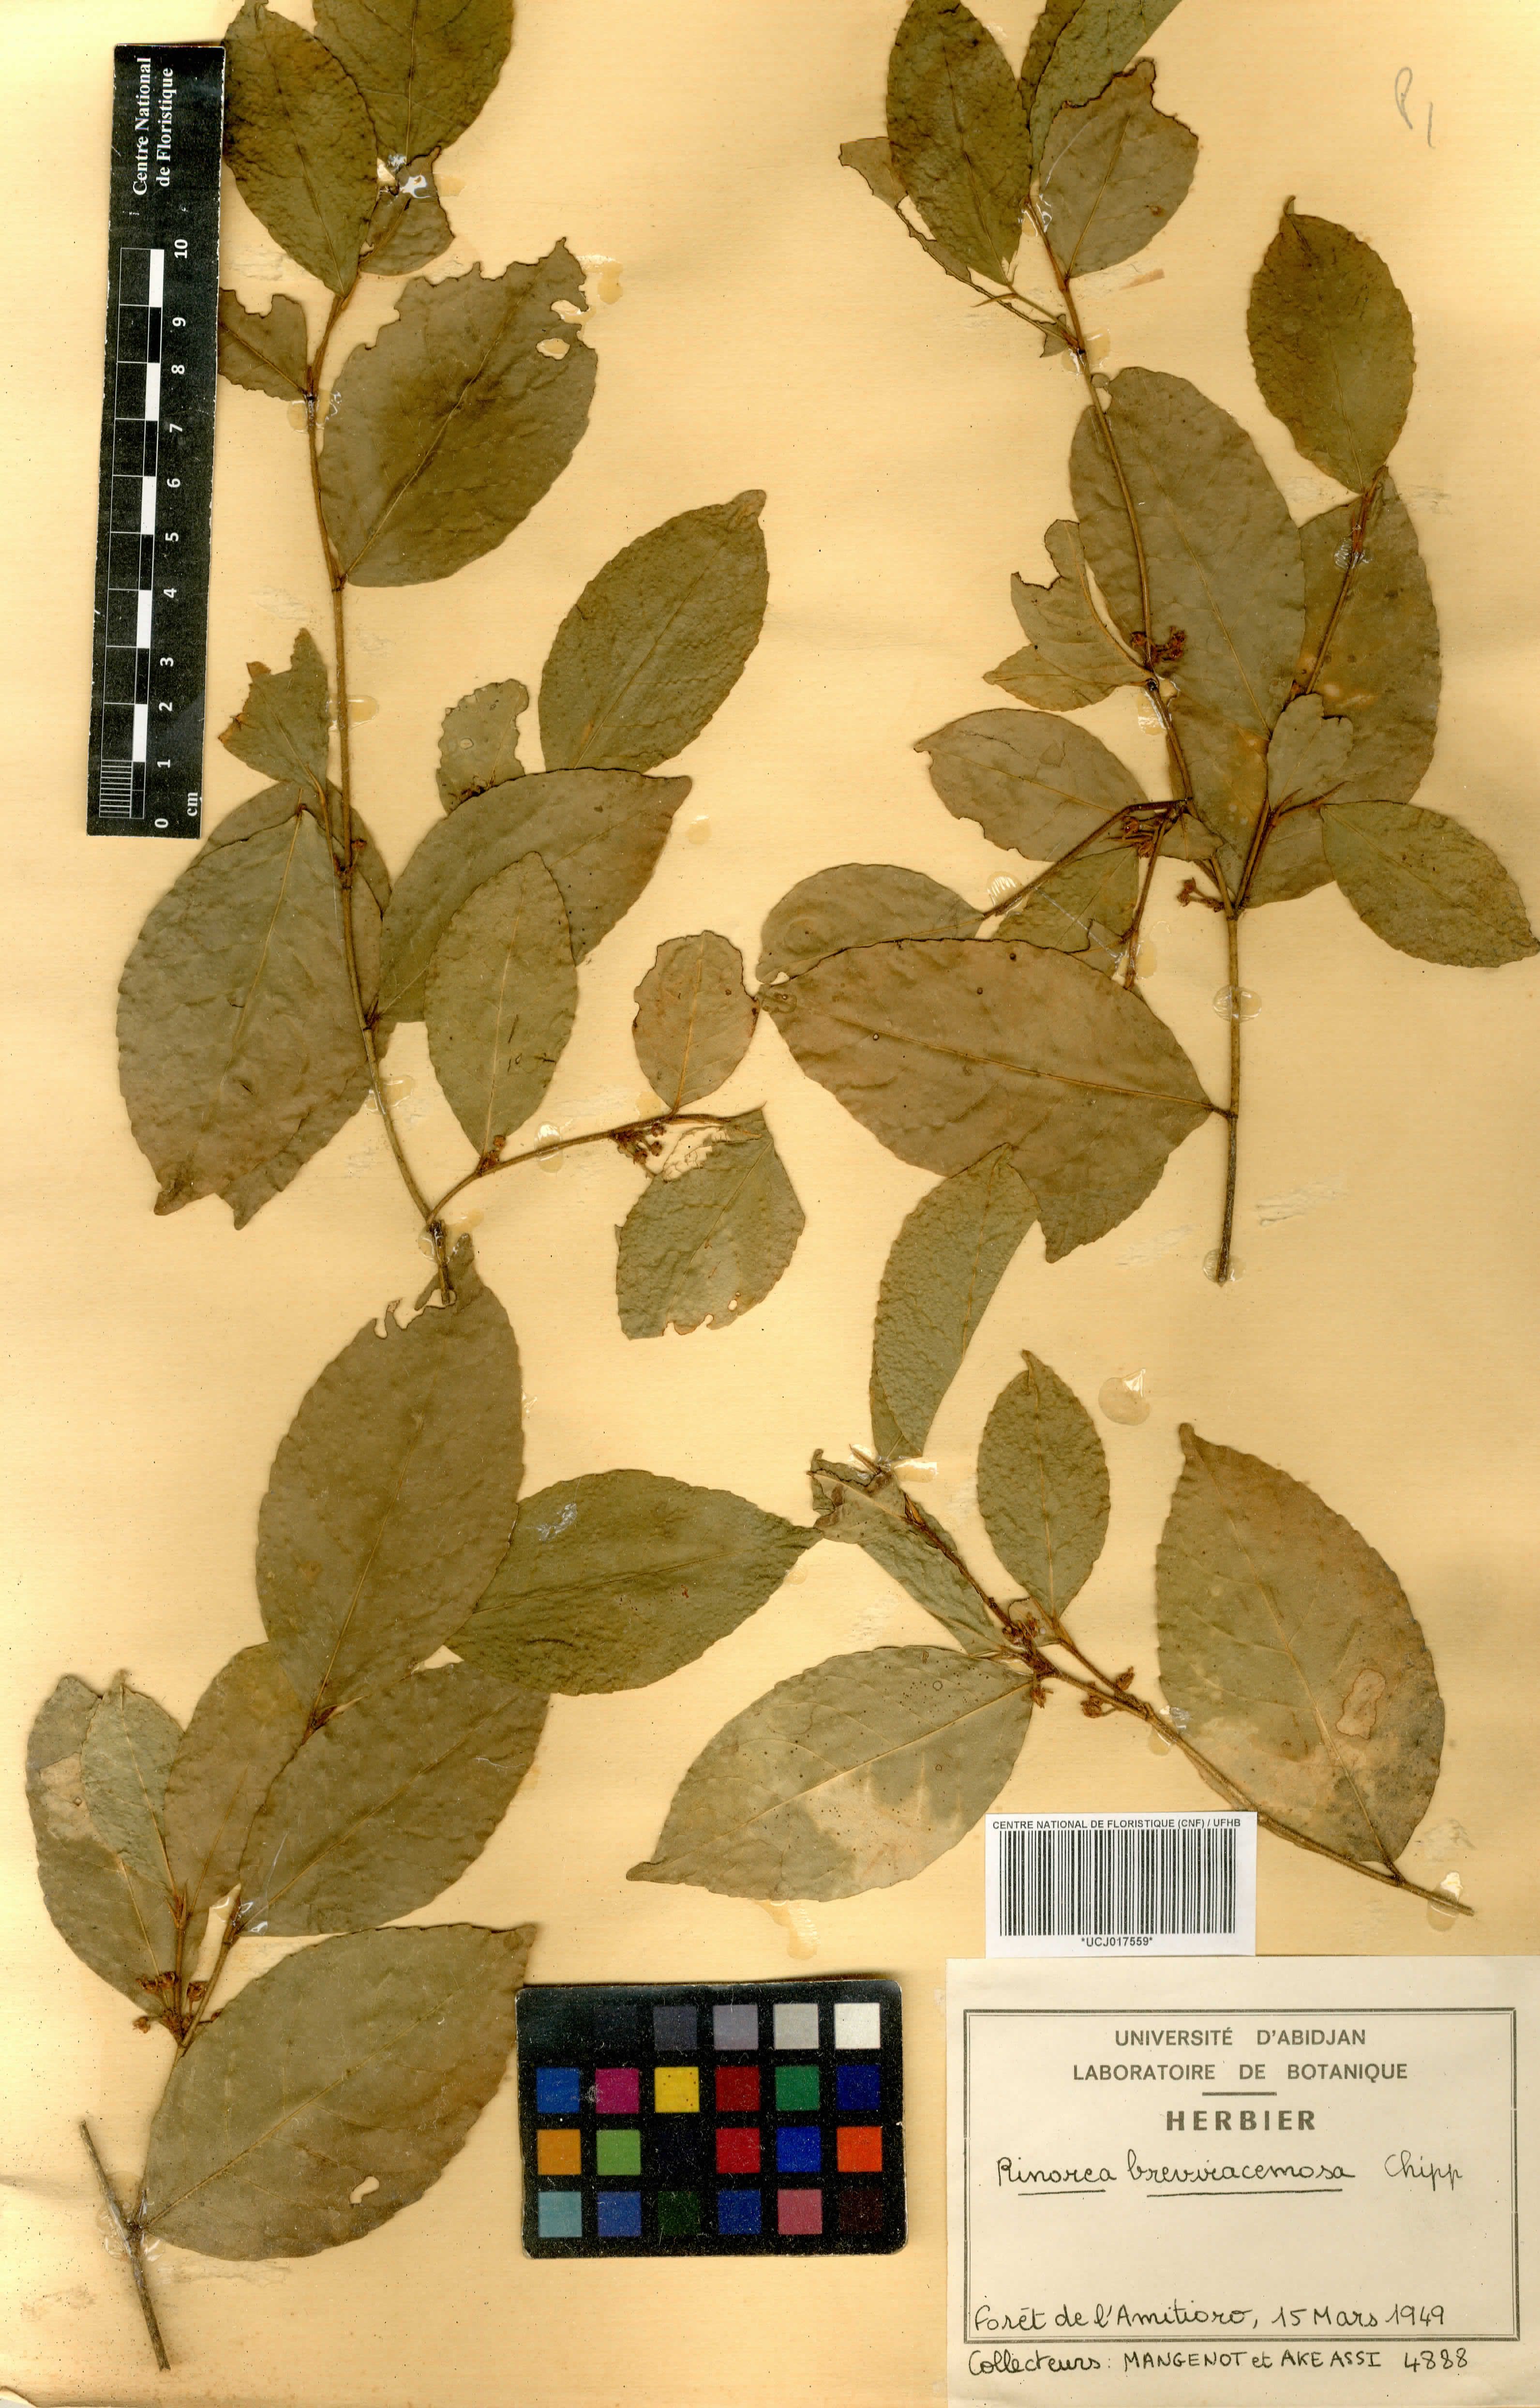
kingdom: Plantae
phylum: Tracheophyta
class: Magnoliopsida
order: Malpighiales
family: Violaceae
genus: Rinorea
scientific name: Rinorea breviracemosa
